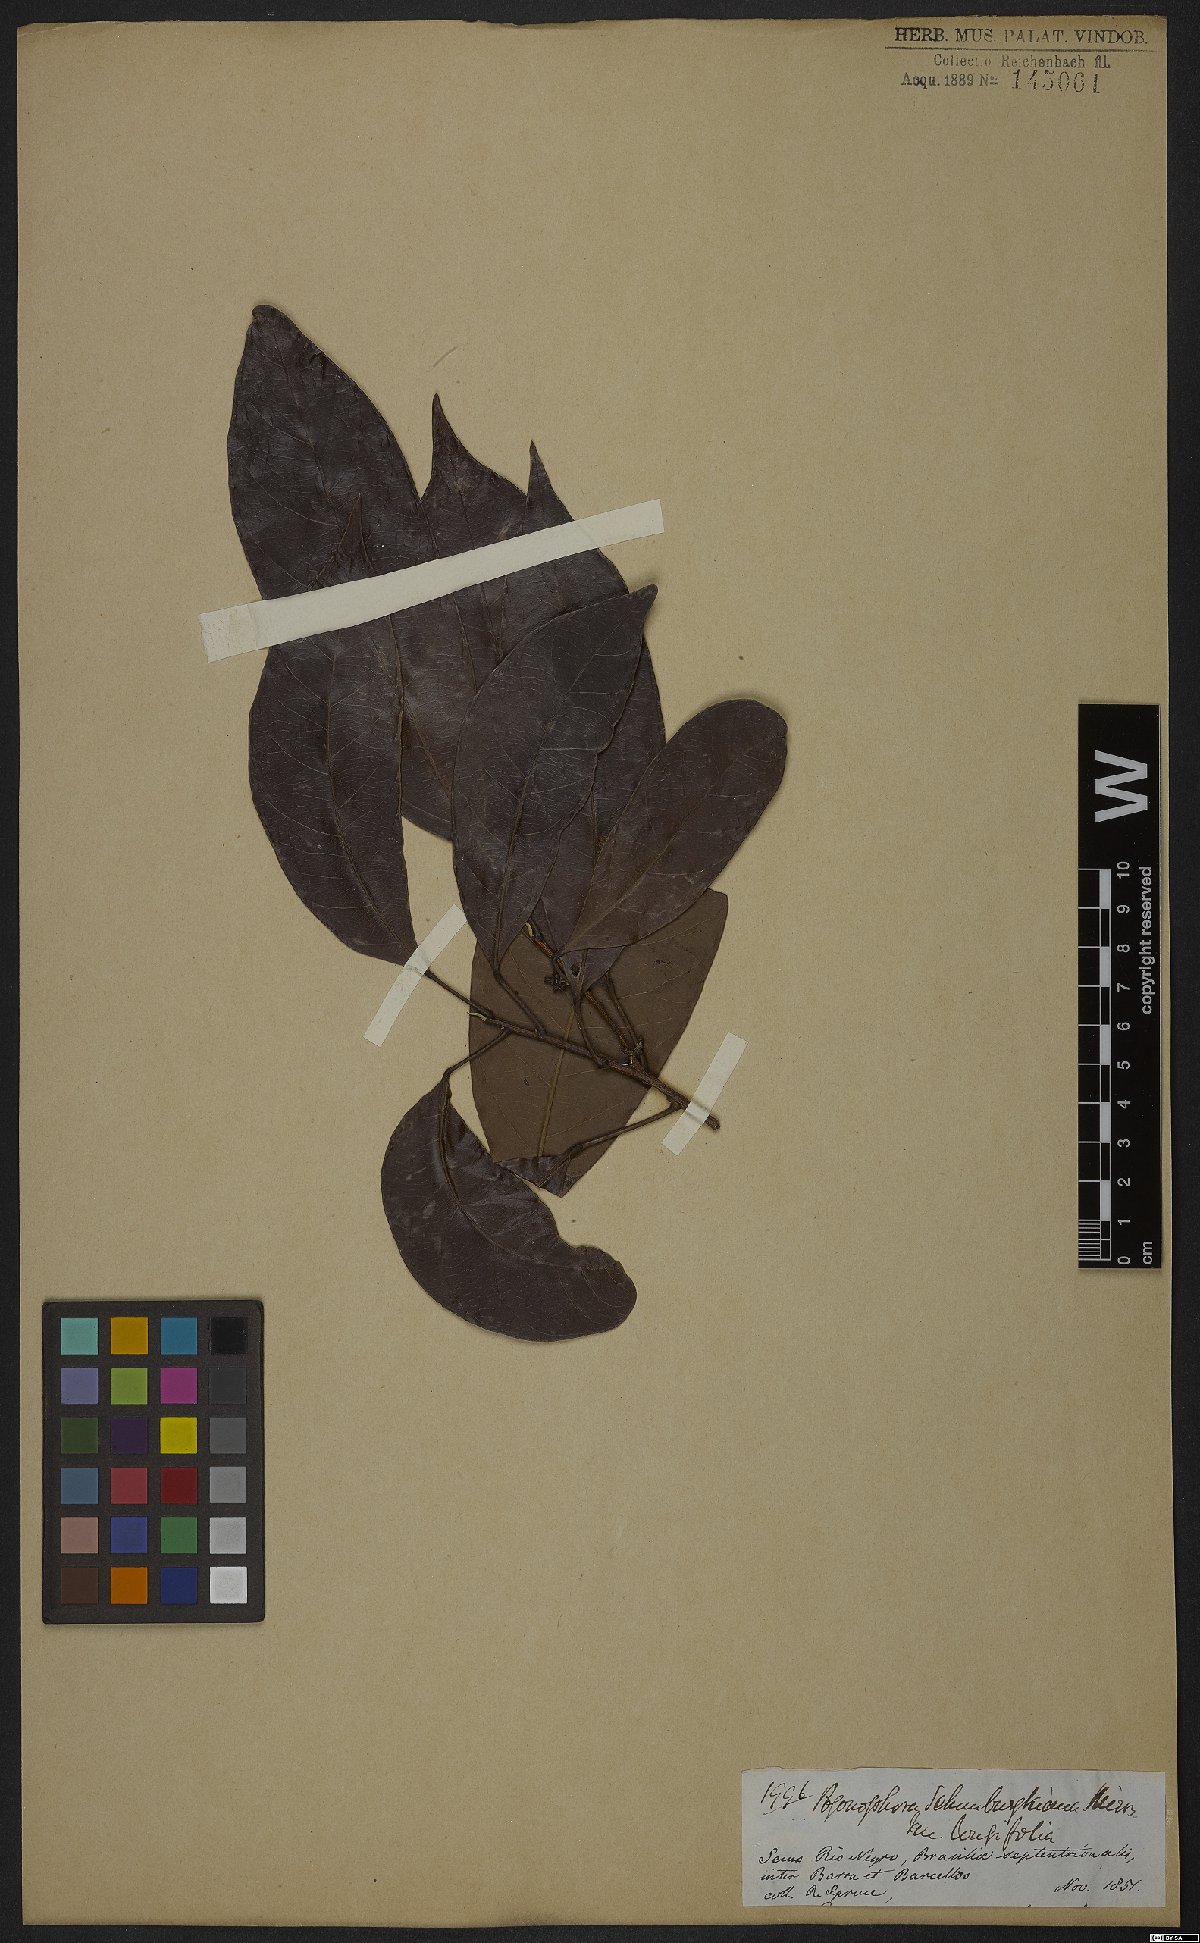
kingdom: Plantae
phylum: Tracheophyta
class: Magnoliopsida
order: Malpighiales
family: Peraceae
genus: Pogonophora
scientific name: Pogonophora schomburgkiana
